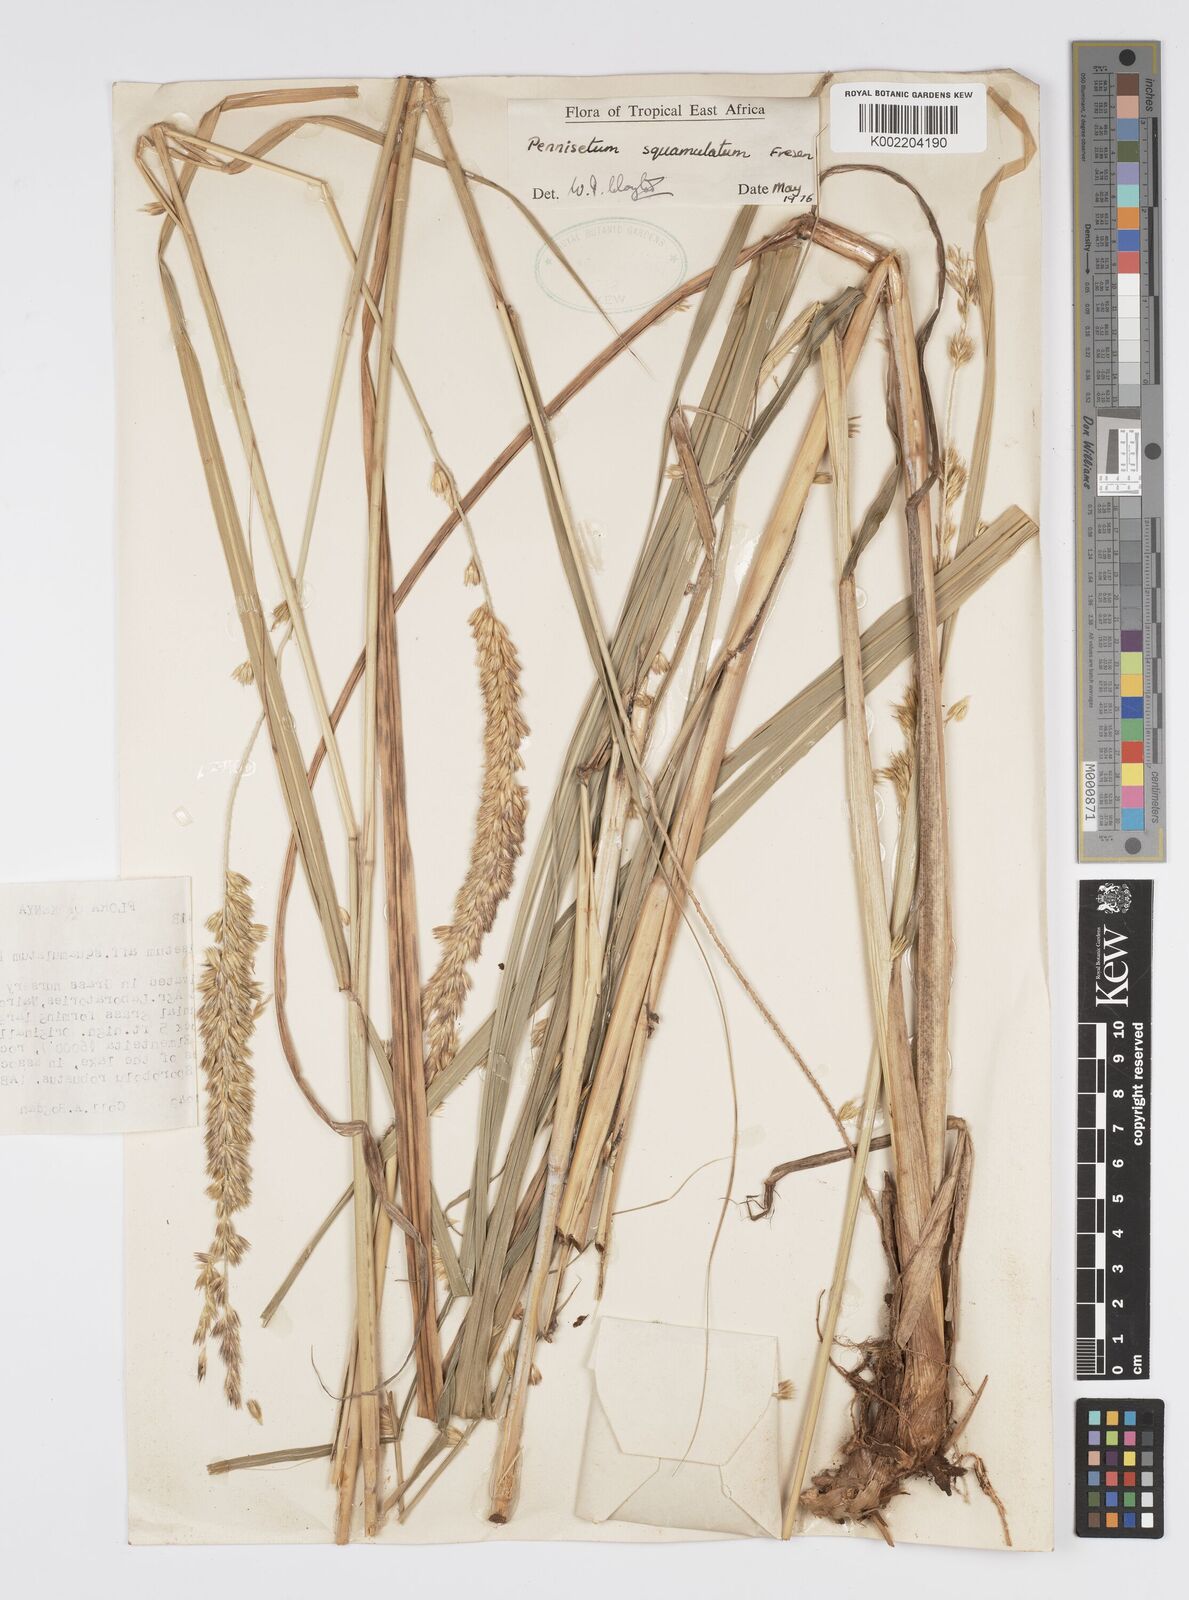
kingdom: Plantae
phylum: Tracheophyta
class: Liliopsida
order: Poales
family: Poaceae
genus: Cenchrus
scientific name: Cenchrus squamulatus
